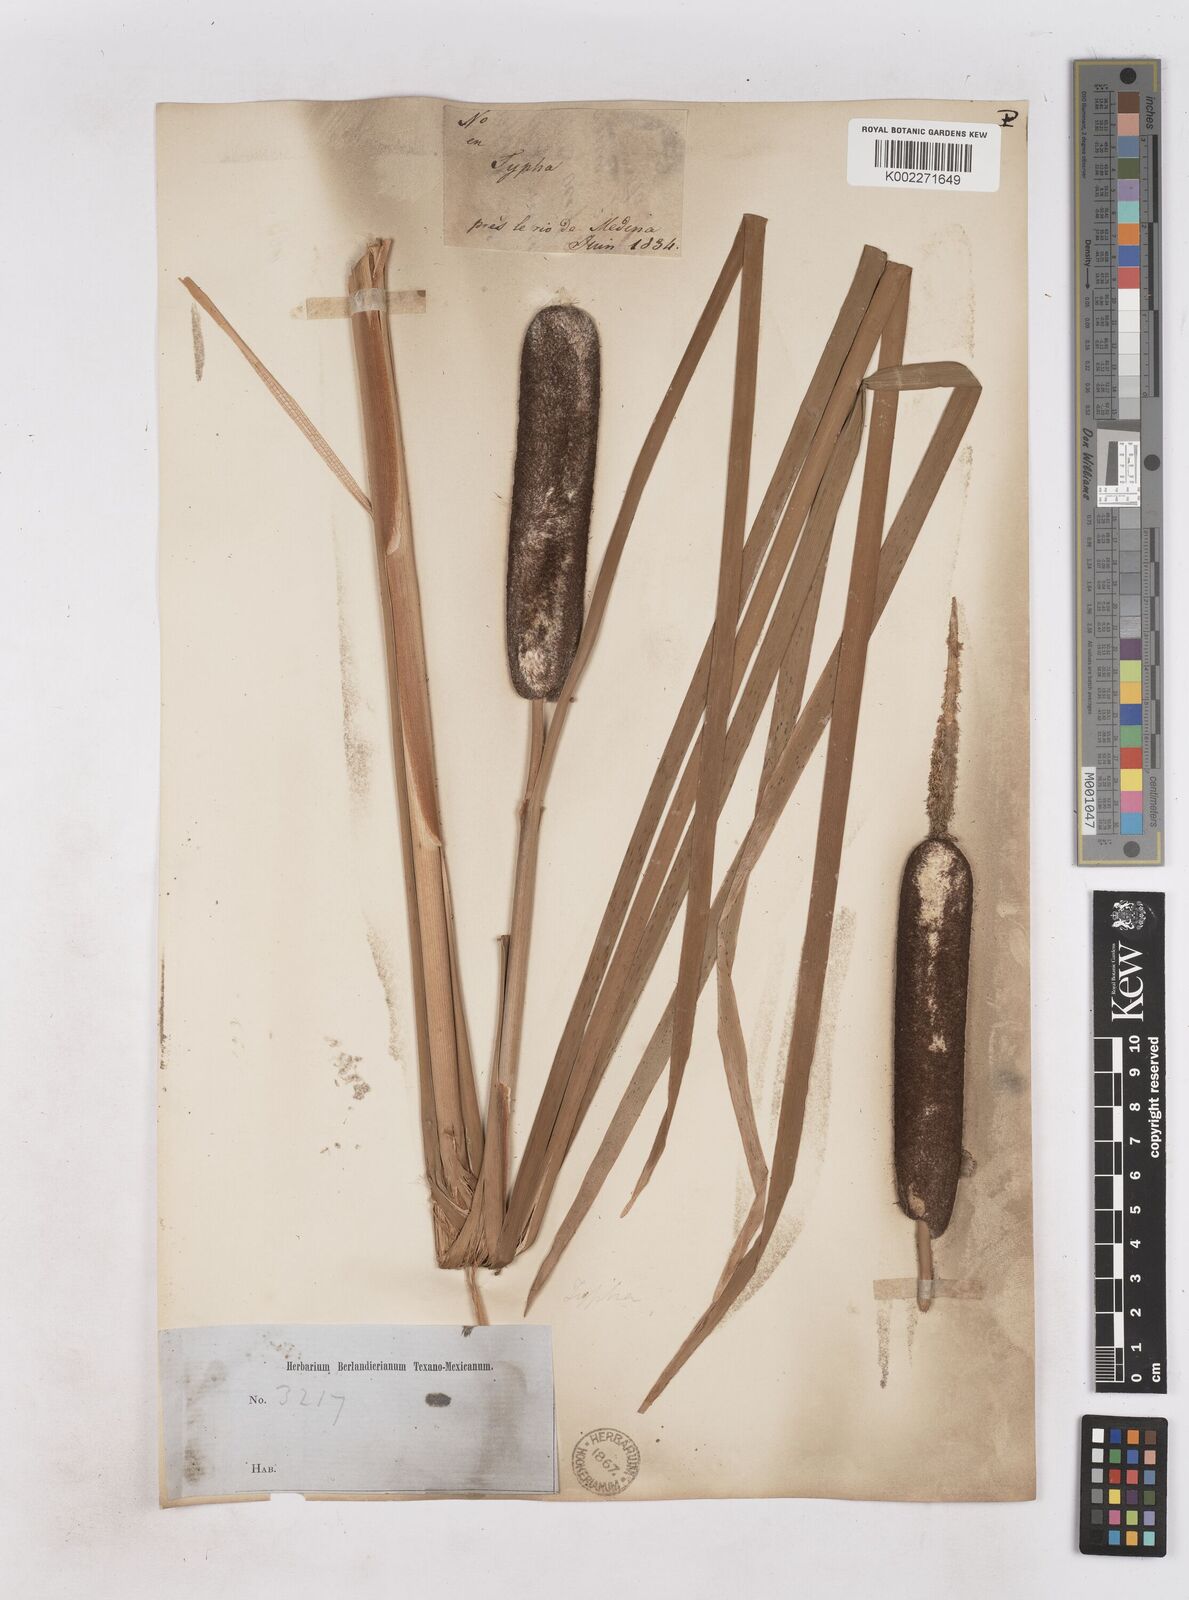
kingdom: Plantae
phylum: Tracheophyta
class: Liliopsida
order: Poales
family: Typhaceae
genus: Typha
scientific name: Typha latifolia
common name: Broadleaf cattail
